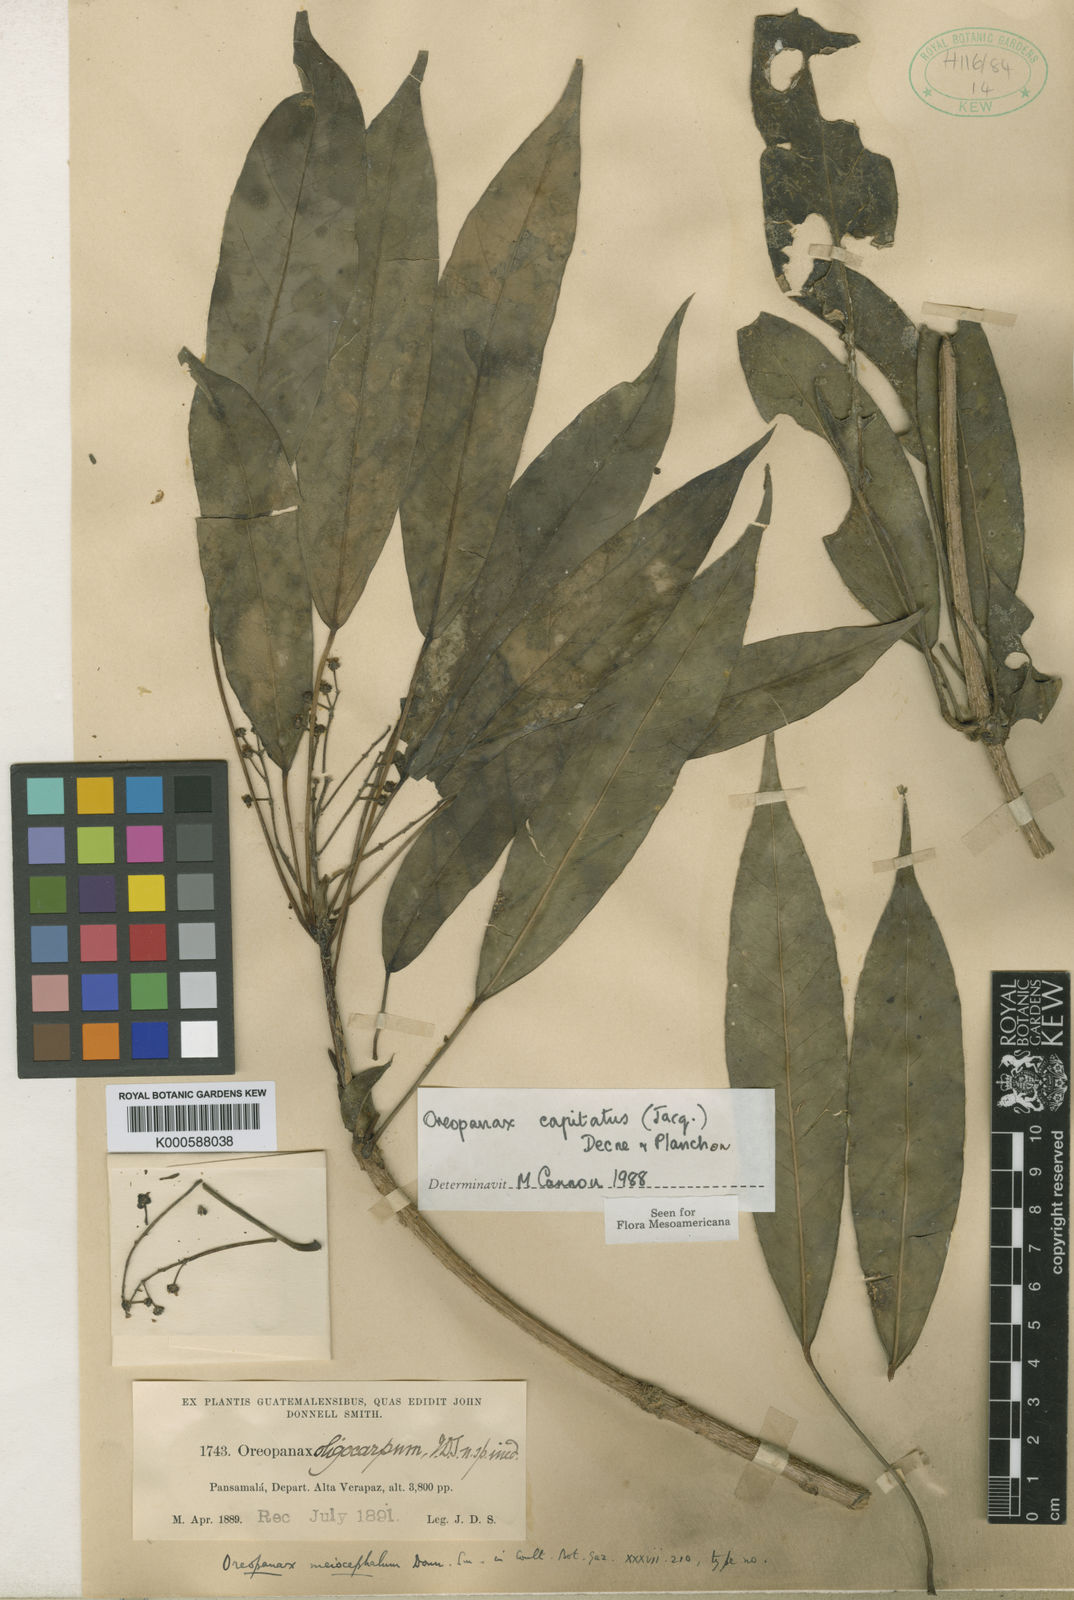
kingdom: Plantae
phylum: Tracheophyta
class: Magnoliopsida
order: Apiales
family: Araliaceae
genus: Oreopanax
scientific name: Oreopanax capitatus
